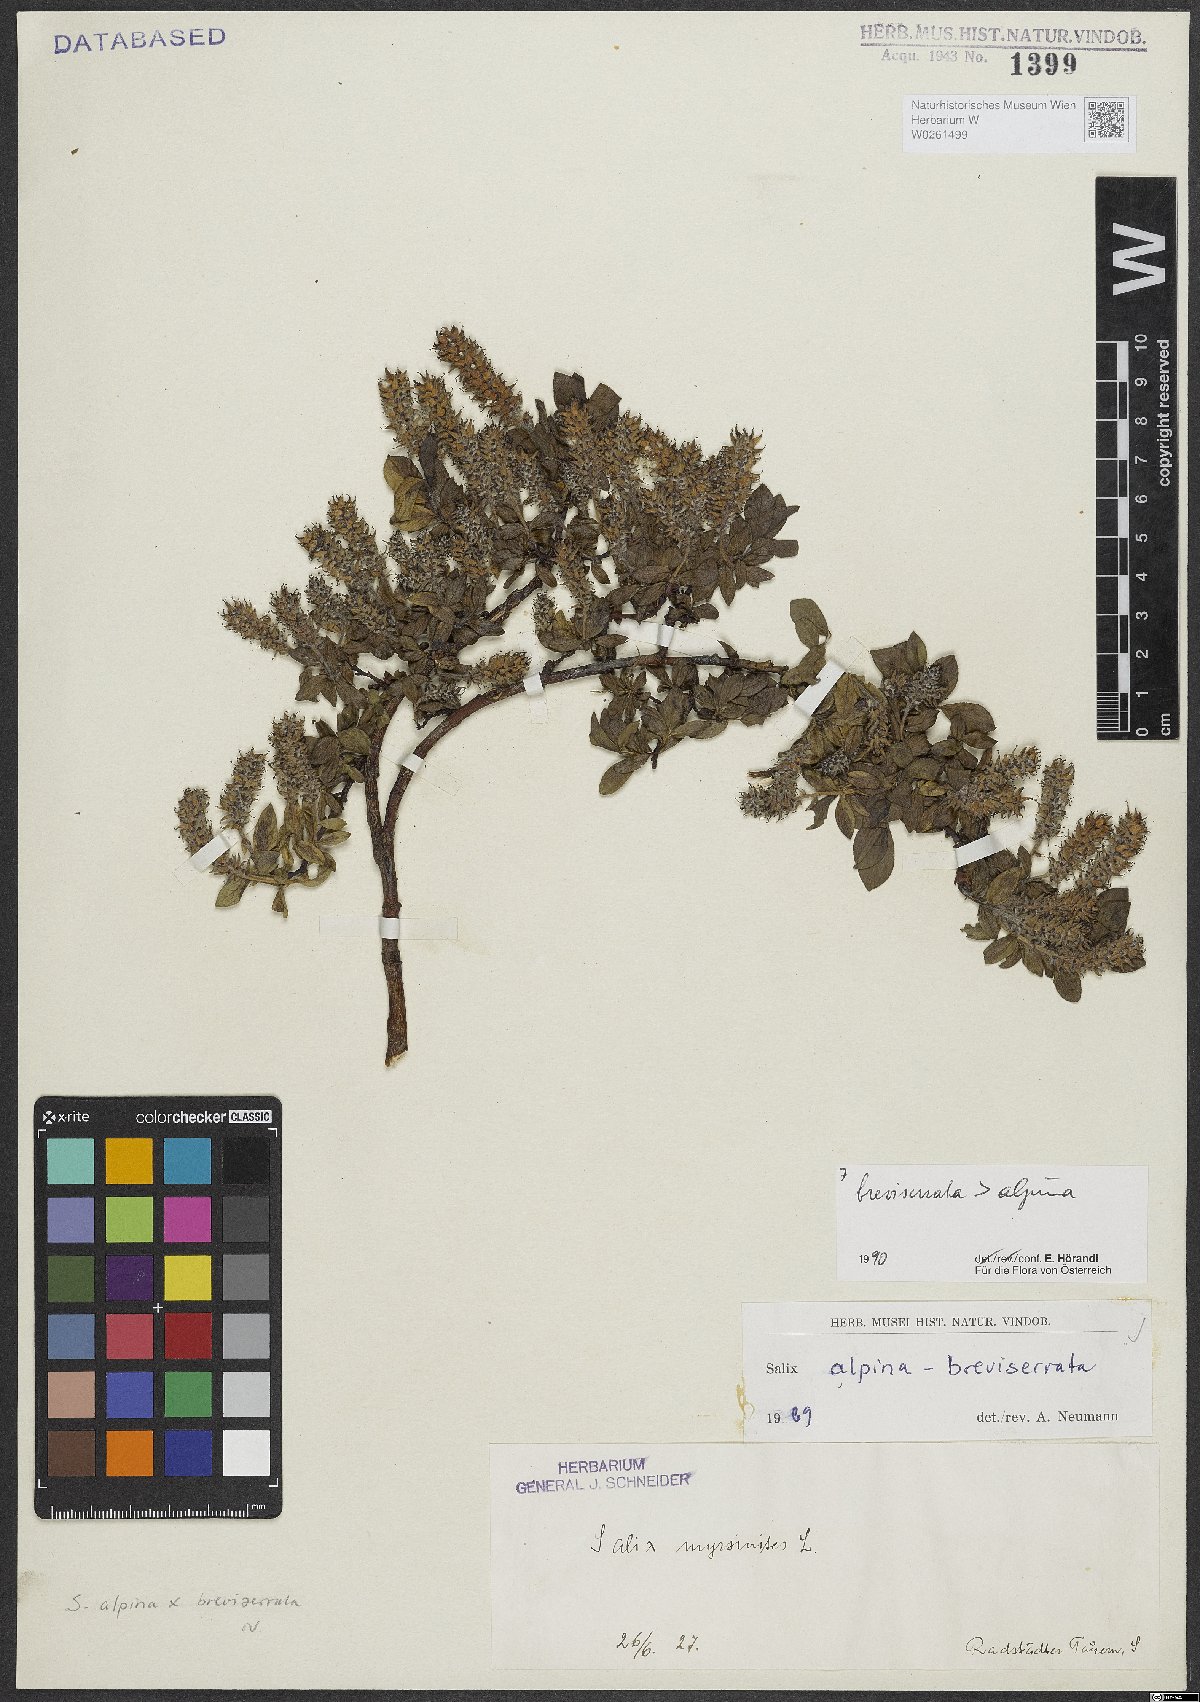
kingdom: Plantae
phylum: Tracheophyta
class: Magnoliopsida
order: Malpighiales
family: Salicaceae
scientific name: Salicaceae
